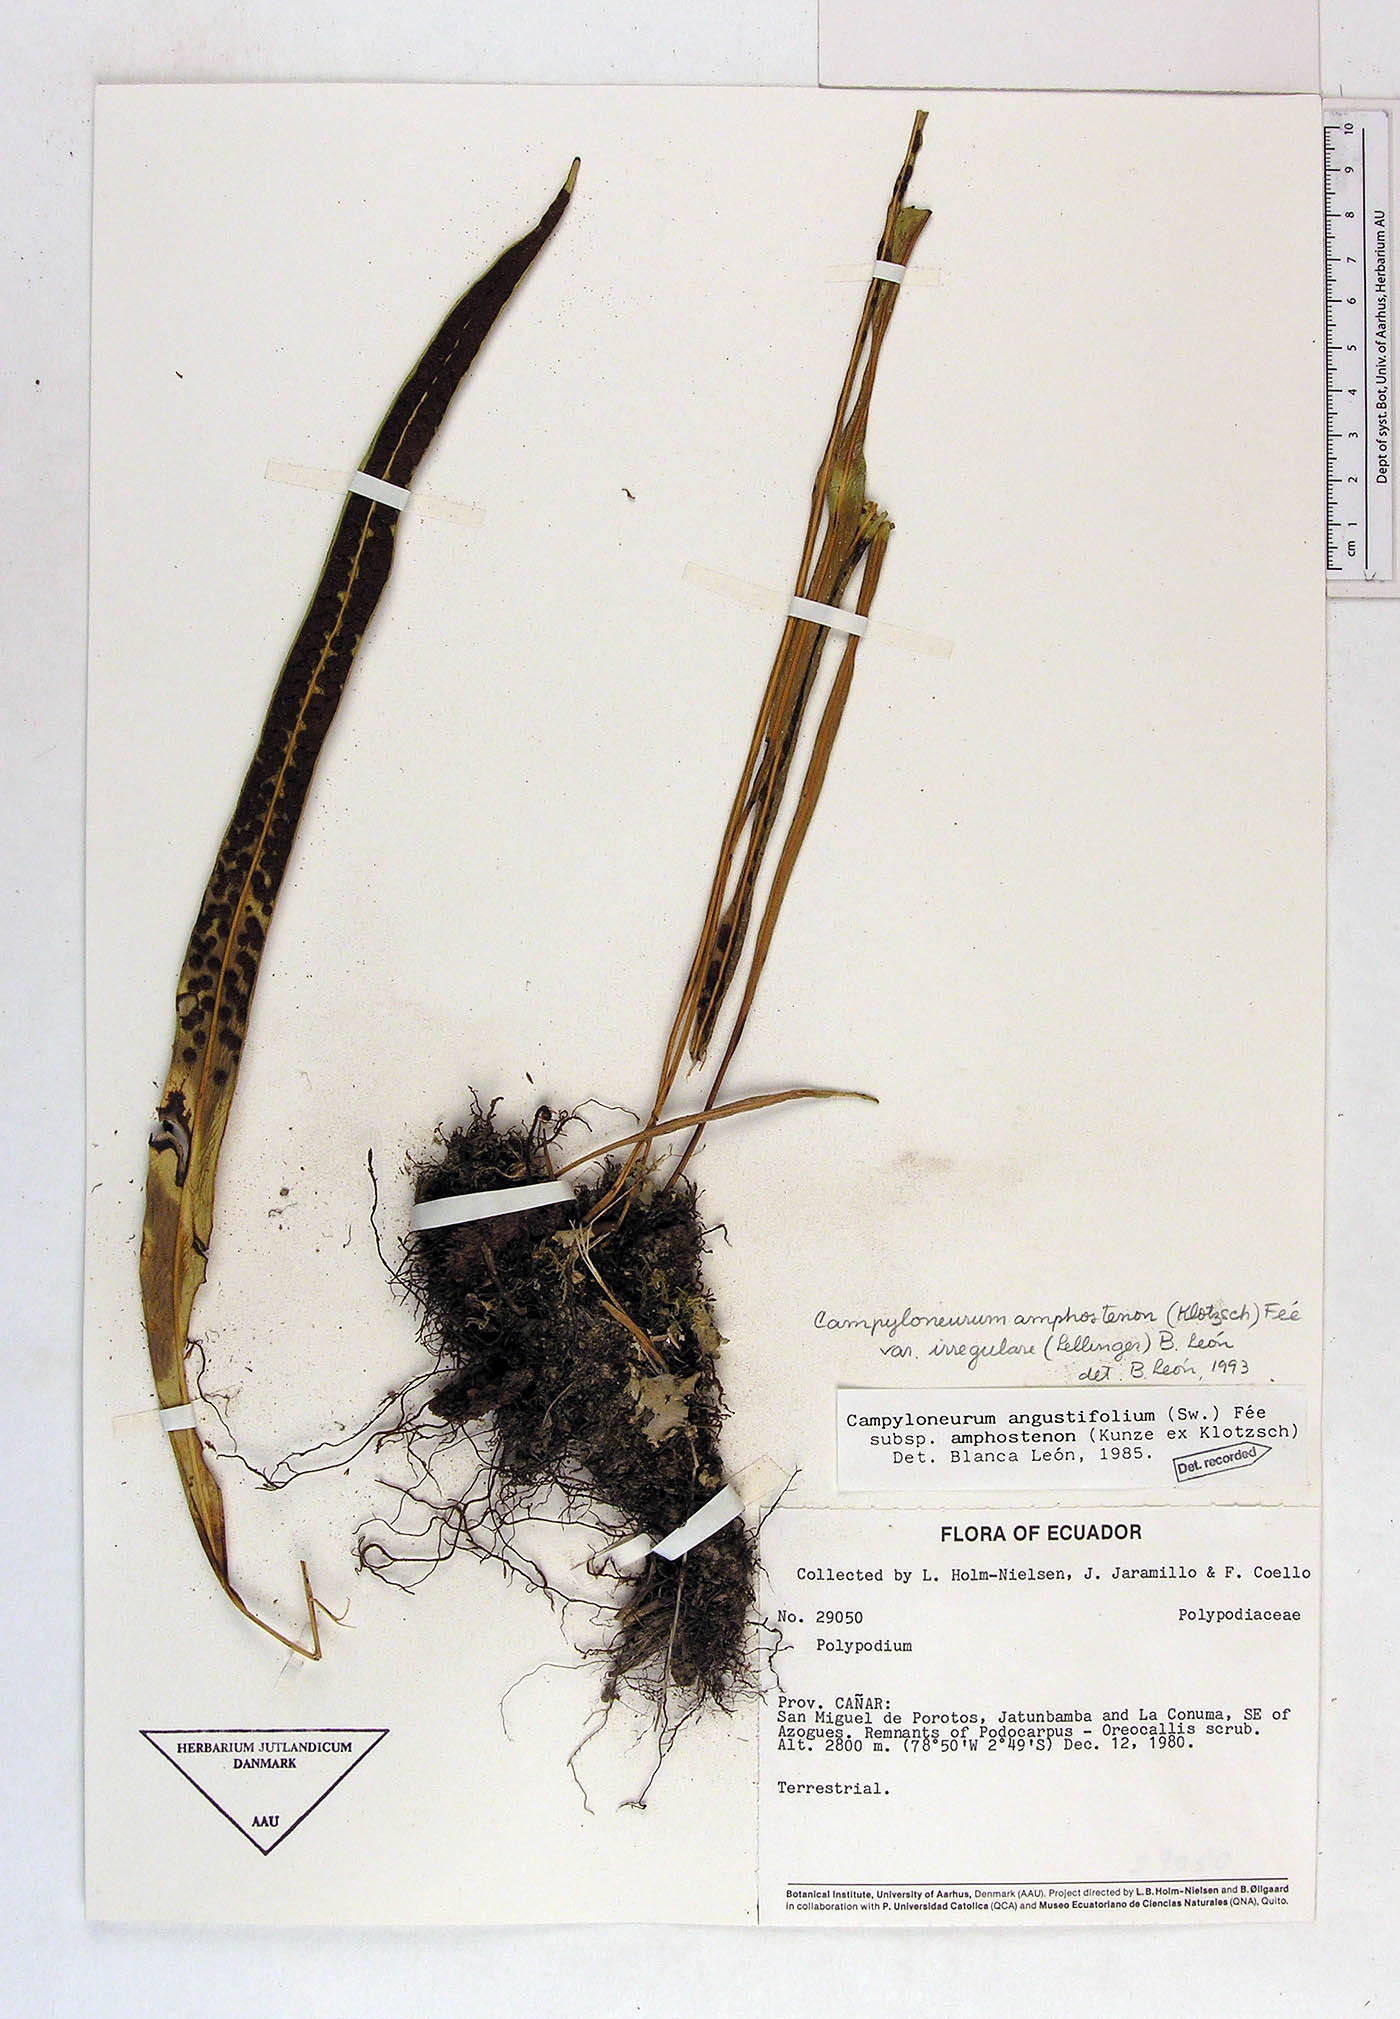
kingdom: Plantae
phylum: Tracheophyta
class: Polypodiopsida
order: Polypodiales
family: Polypodiaceae
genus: Campyloneurum
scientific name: Campyloneurum angustifolium
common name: Narrow-leaf strap fern
